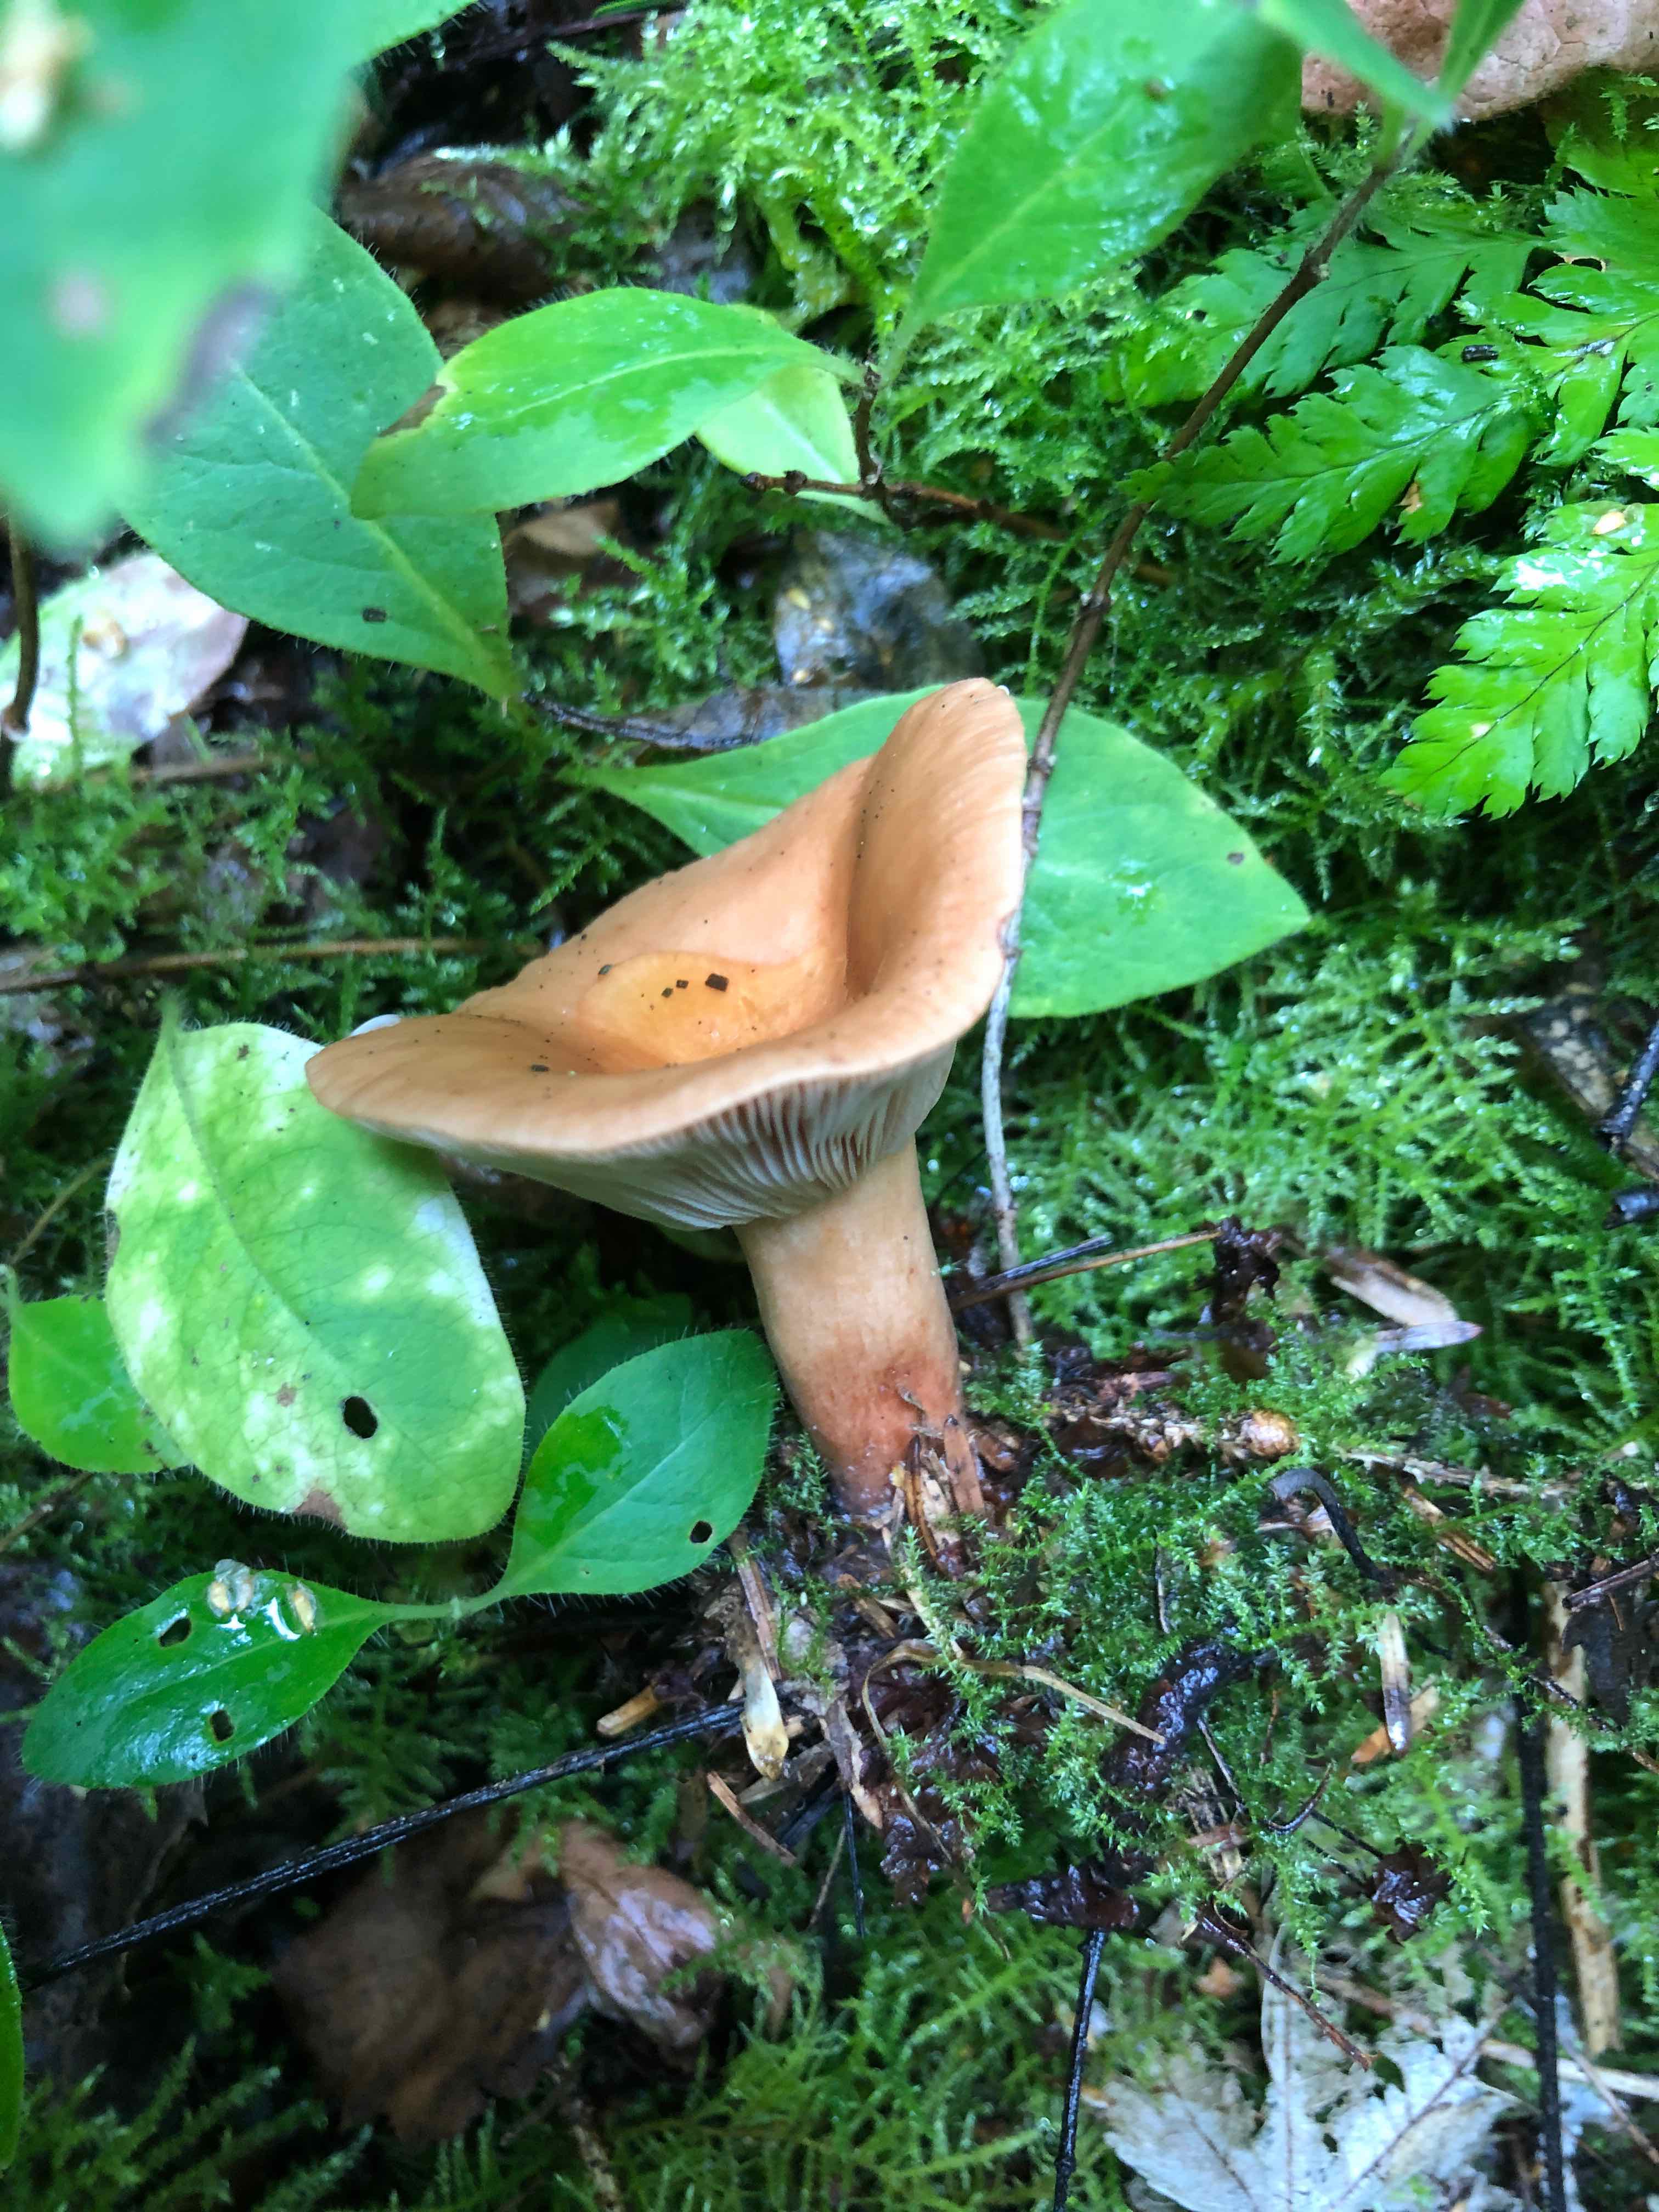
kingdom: Fungi
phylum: Basidiomycota
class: Agaricomycetes
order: Russulales
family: Russulaceae
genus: Lactarius
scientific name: Lactarius tabidus
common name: rynket mælkehat
